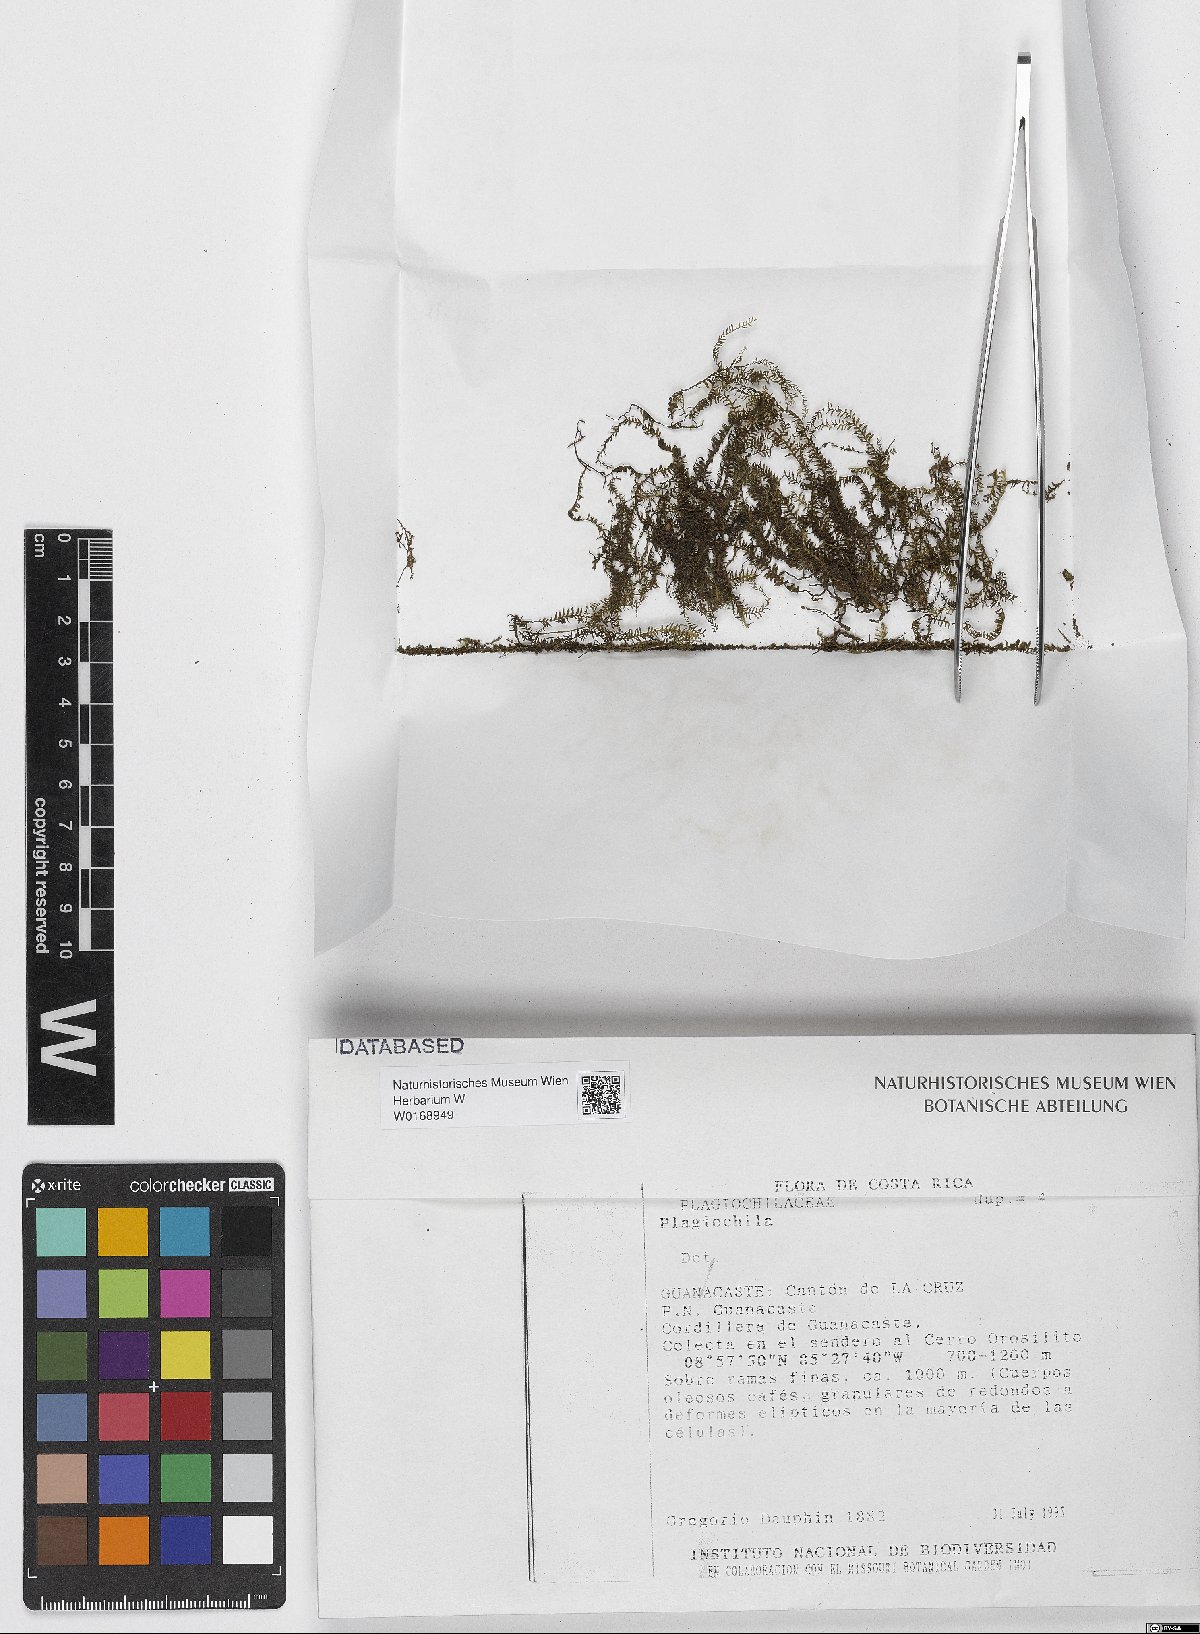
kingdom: Plantae
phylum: Marchantiophyta
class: Jungermanniopsida
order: Jungermanniales
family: Plagiochilaceae
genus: Plagiochila
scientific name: Plagiochila
